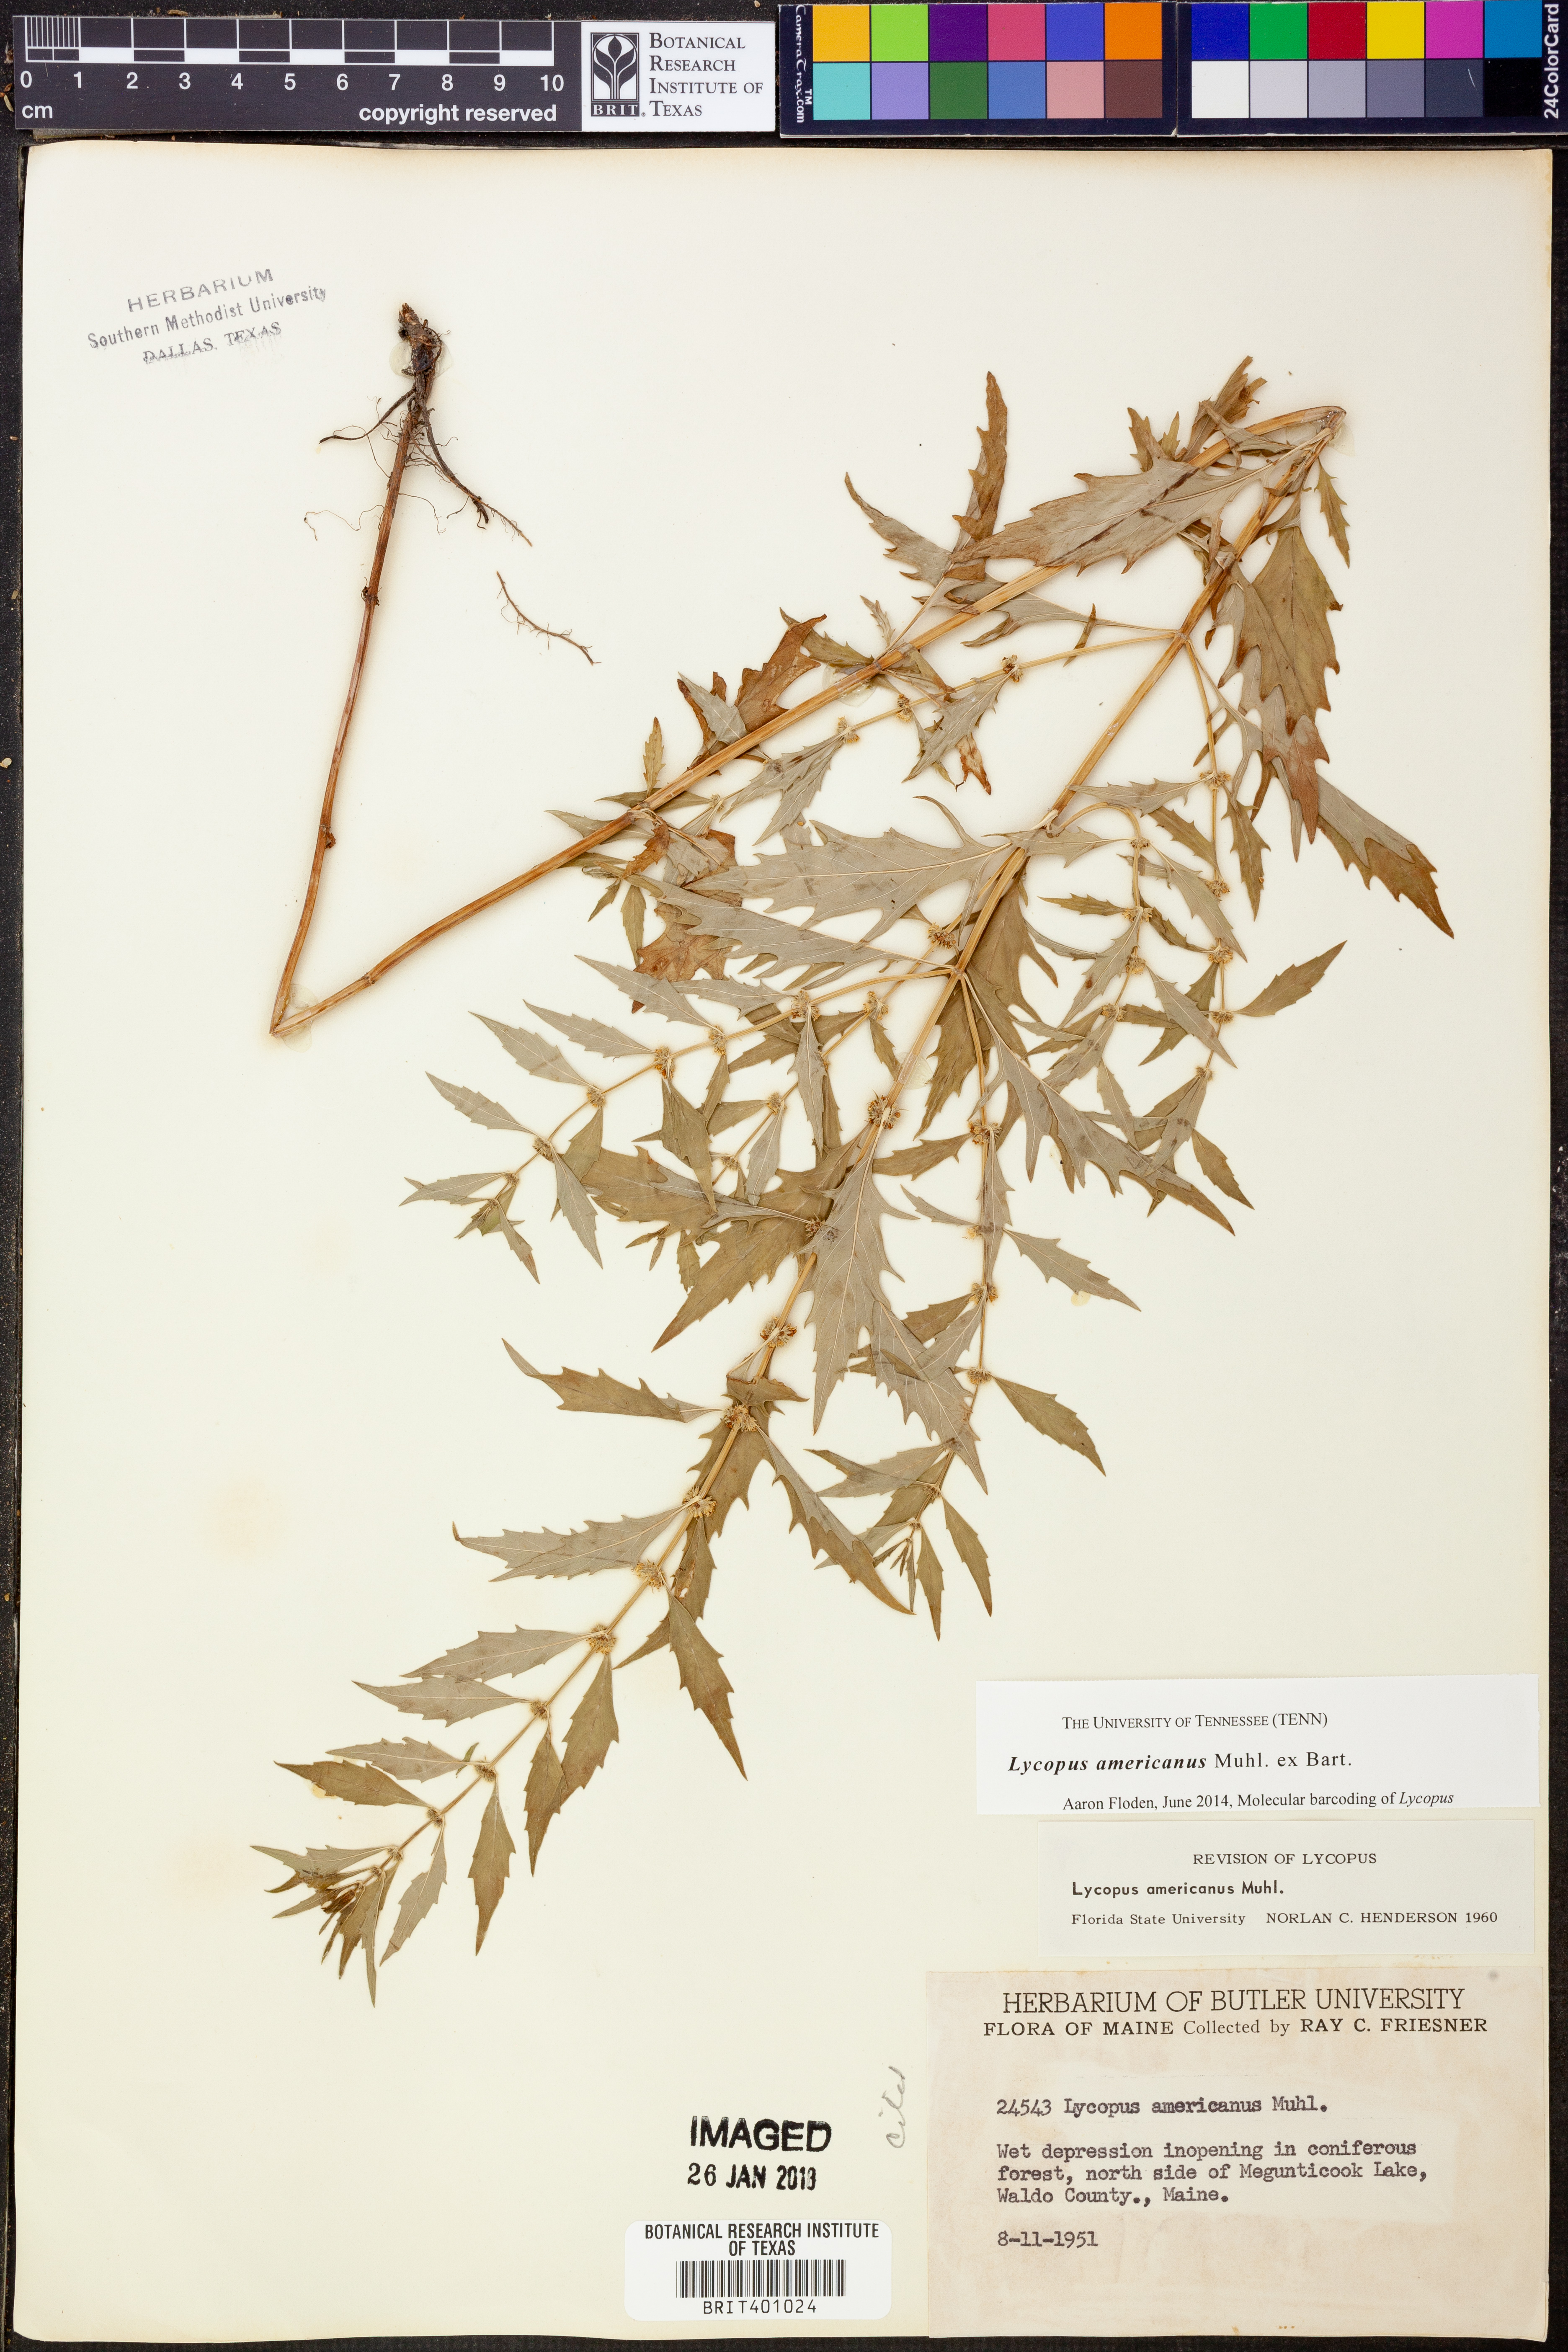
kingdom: Plantae
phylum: Tracheophyta
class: Magnoliopsida
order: Lamiales
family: Lamiaceae
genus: Lycopus
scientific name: Lycopus americanus
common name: American bugleweed
